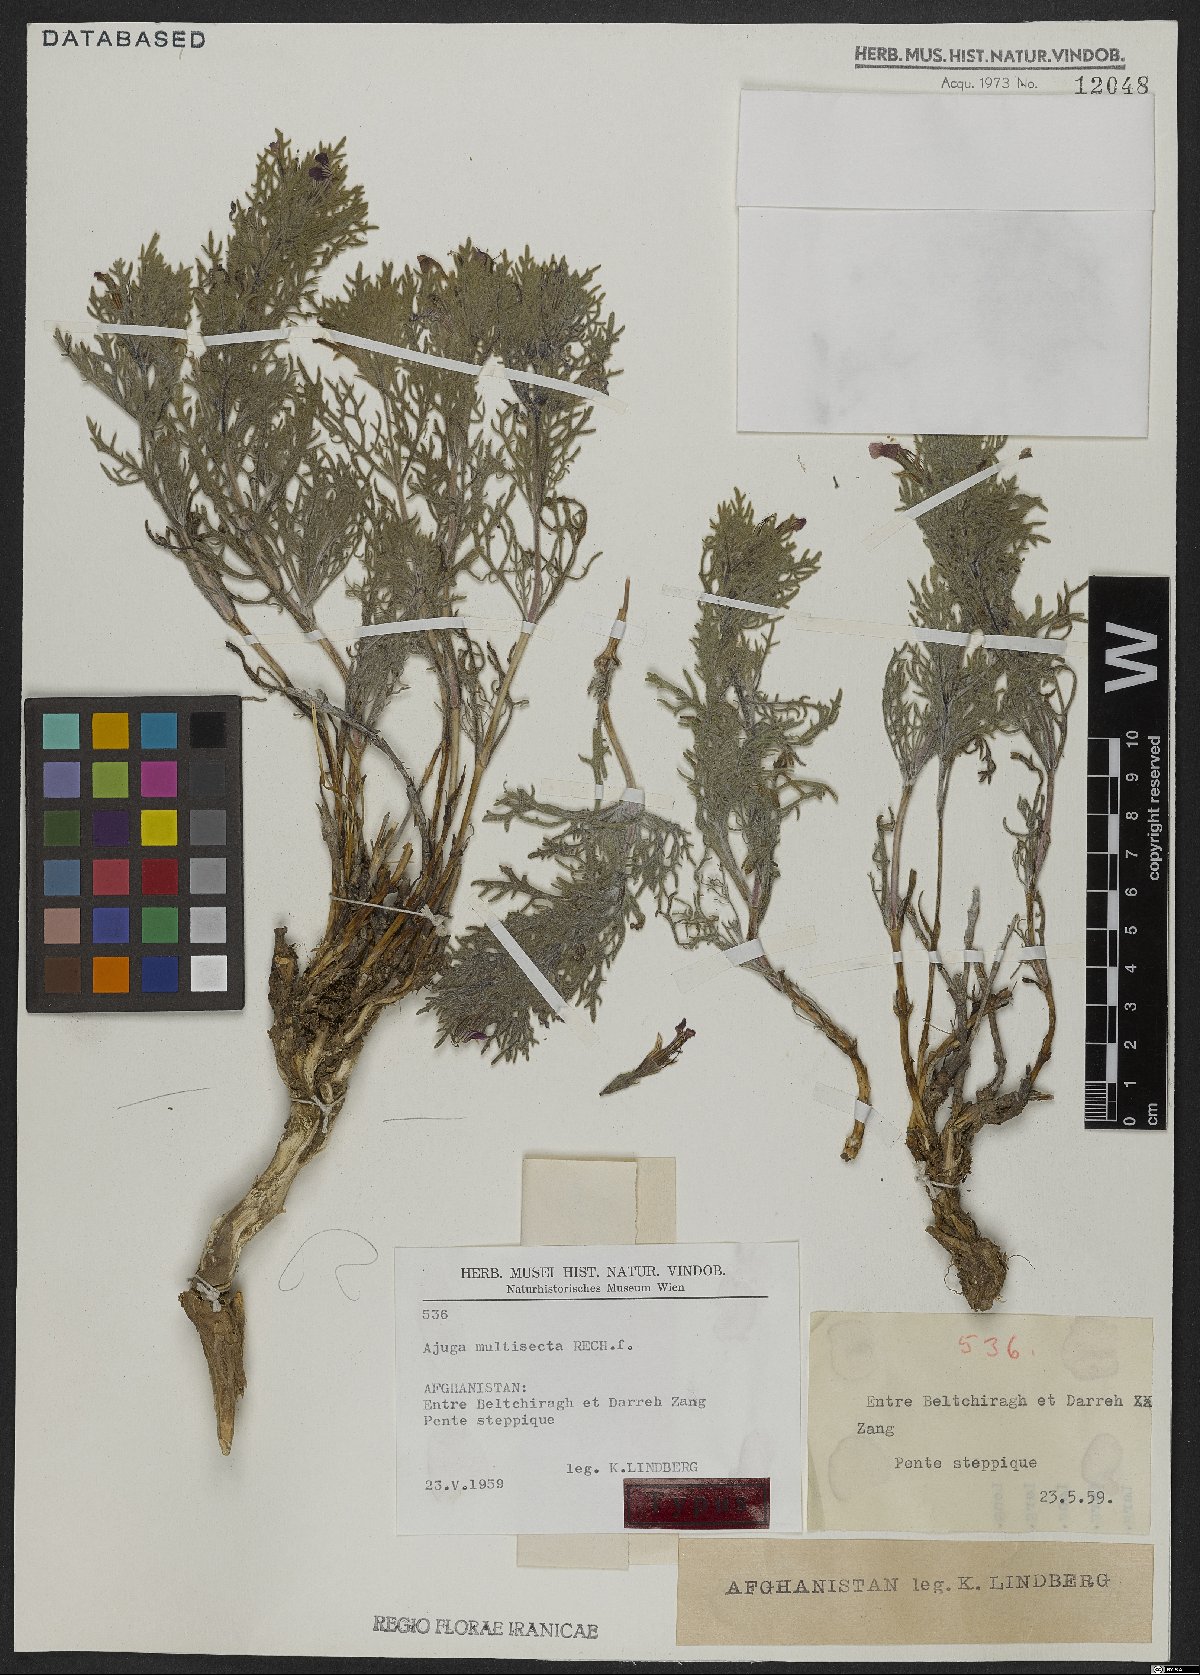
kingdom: Plantae
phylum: Tracheophyta
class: Magnoliopsida
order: Lamiales
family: Lamiaceae
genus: Ajuga
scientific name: Ajuga chamaecistus
